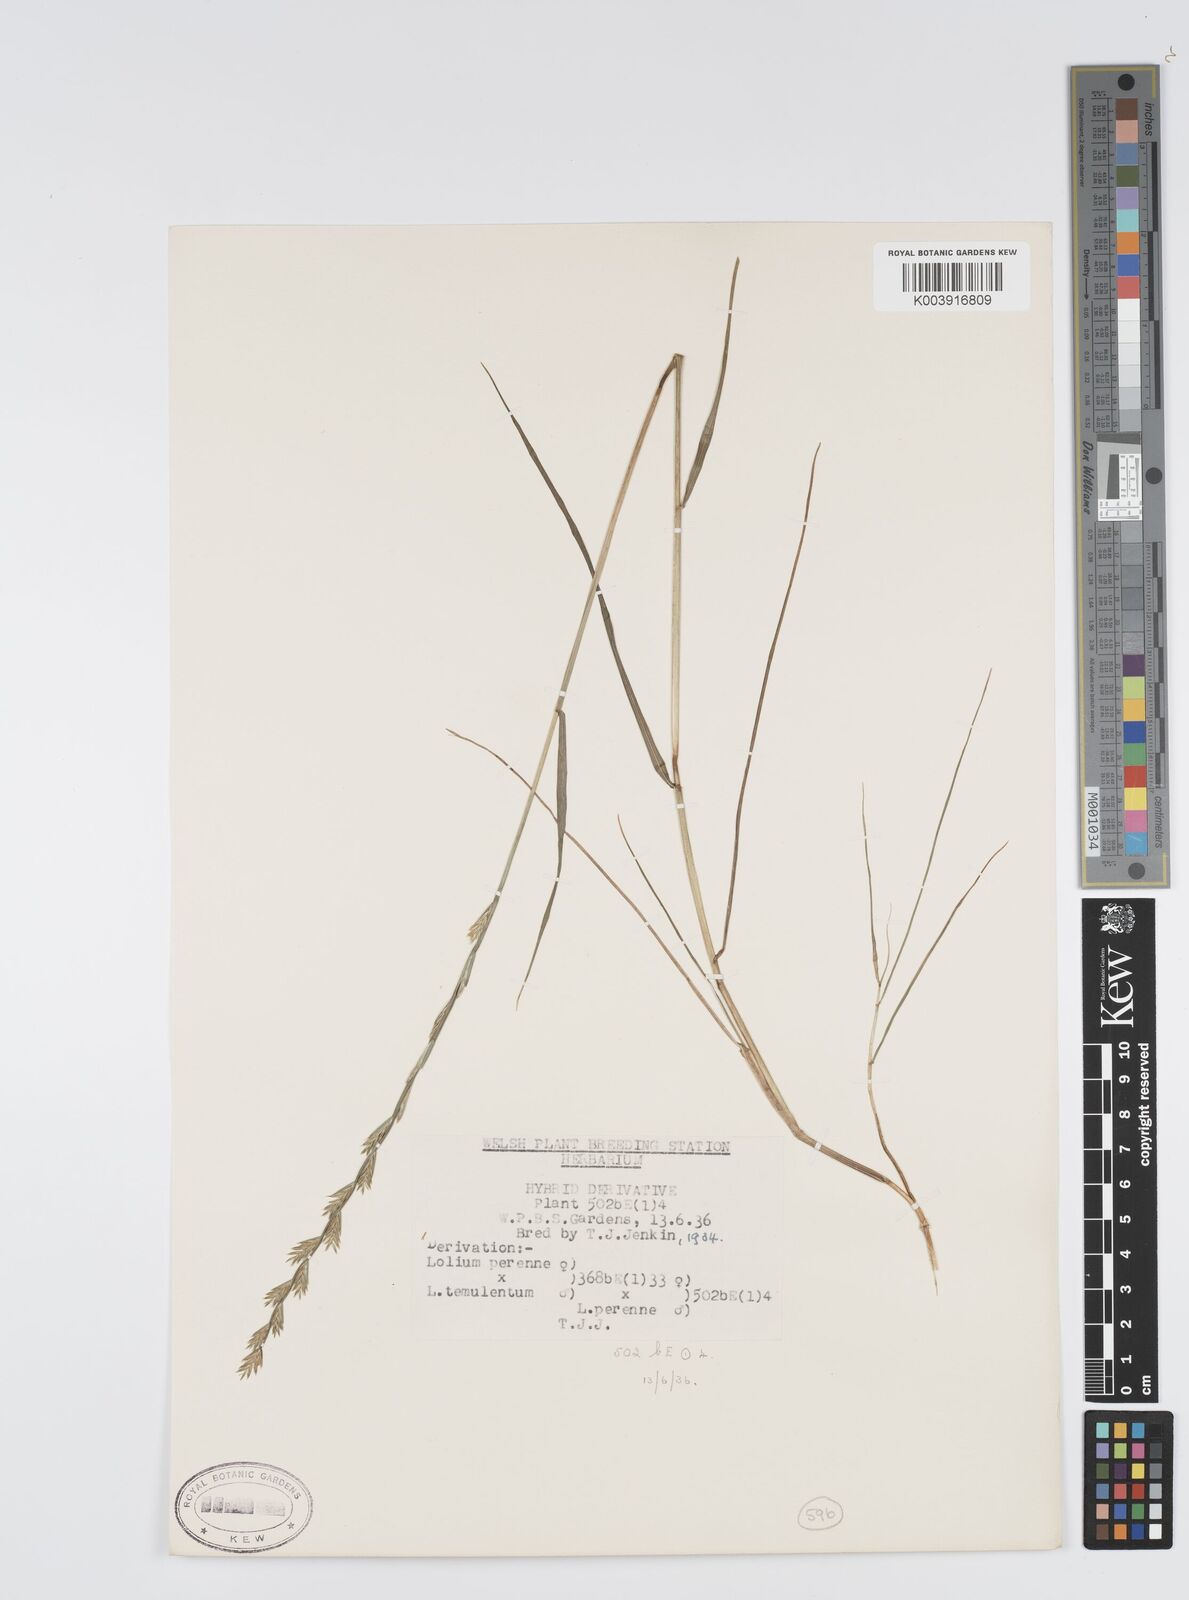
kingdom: Plantae
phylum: Tracheophyta
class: Liliopsida
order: Poales
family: Poaceae
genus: Lolium
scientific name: Lolium perenne
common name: Perennial ryegrass
